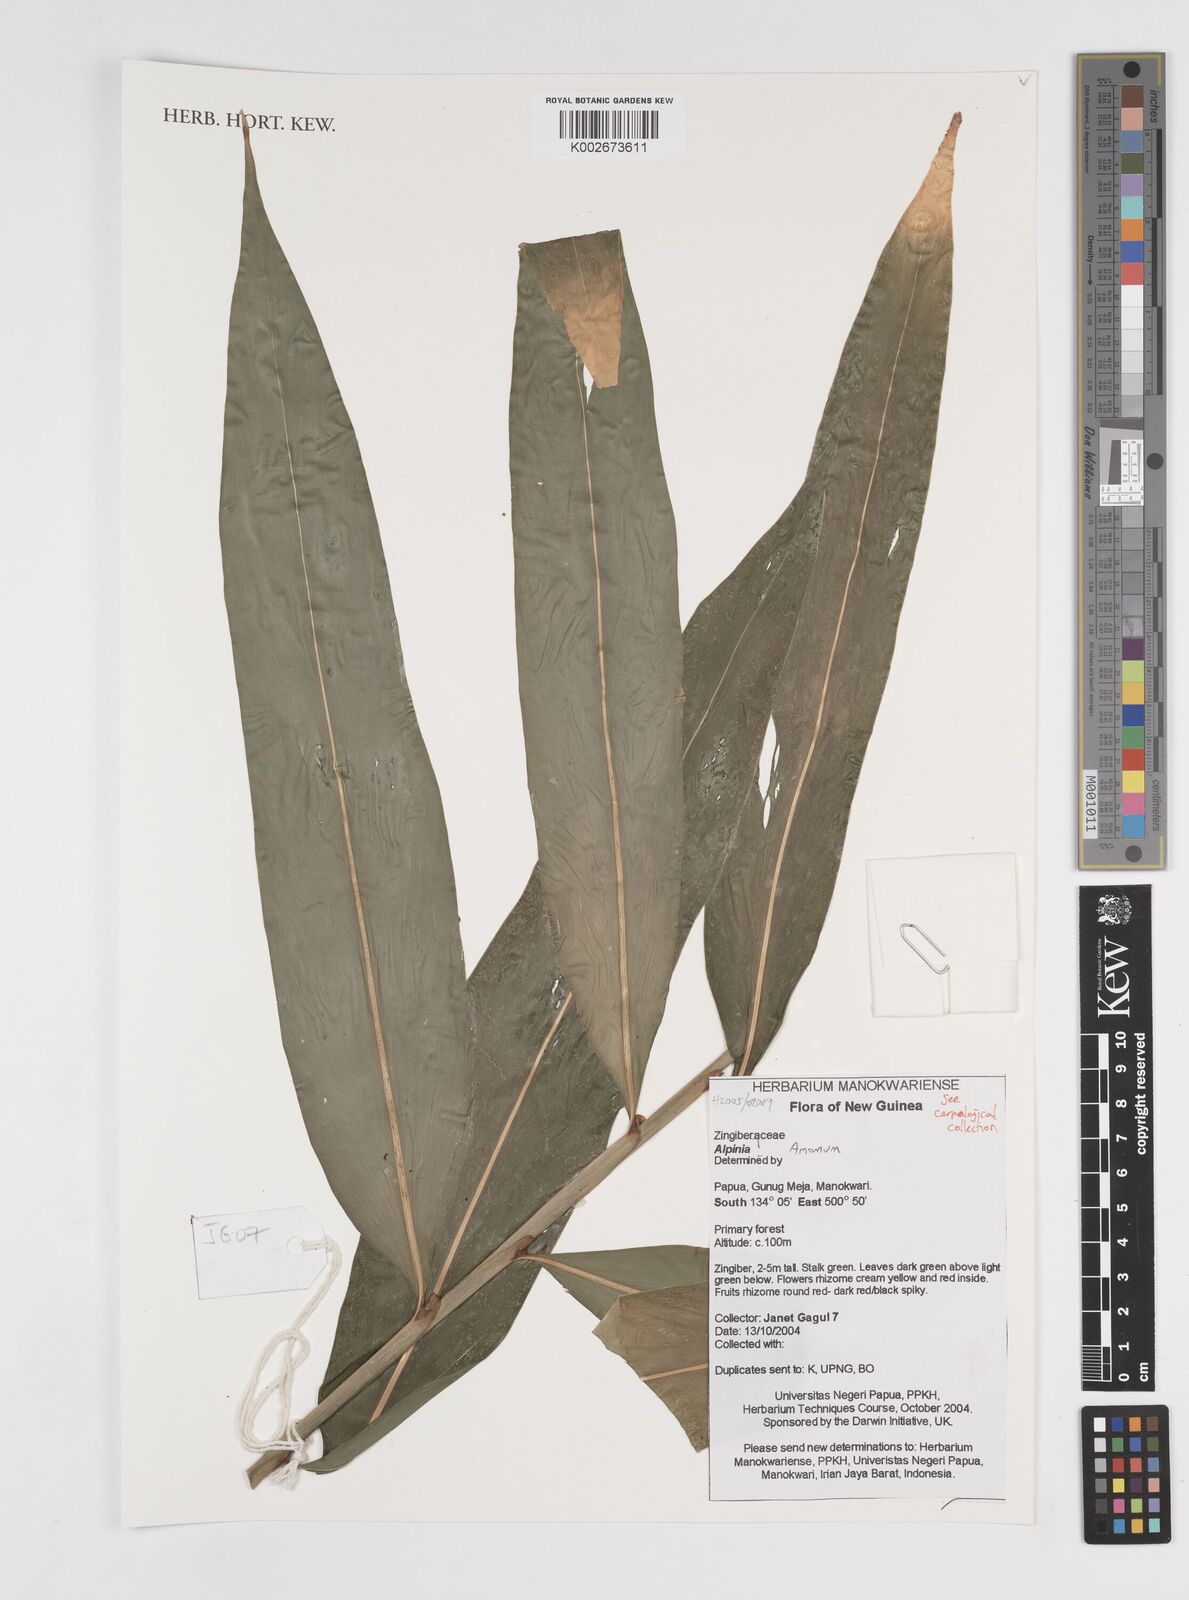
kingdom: Plantae
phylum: Tracheophyta
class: Liliopsida
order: Zingiberales
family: Zingiberaceae
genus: Amomum
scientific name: Amomum
